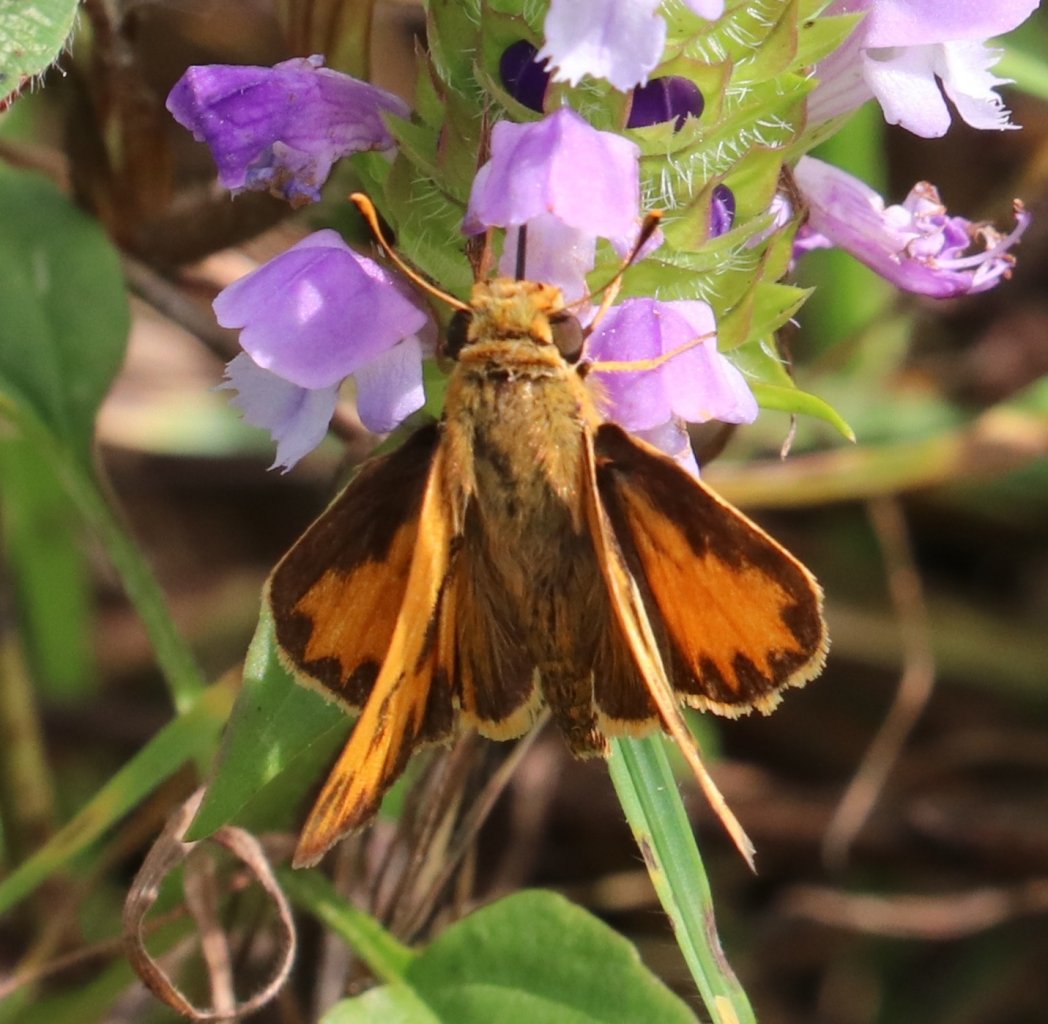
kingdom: Animalia
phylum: Arthropoda
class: Insecta
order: Lepidoptera
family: Hesperiidae
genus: Hylephila
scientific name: Hylephila phyleus
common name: Fiery Skipper
